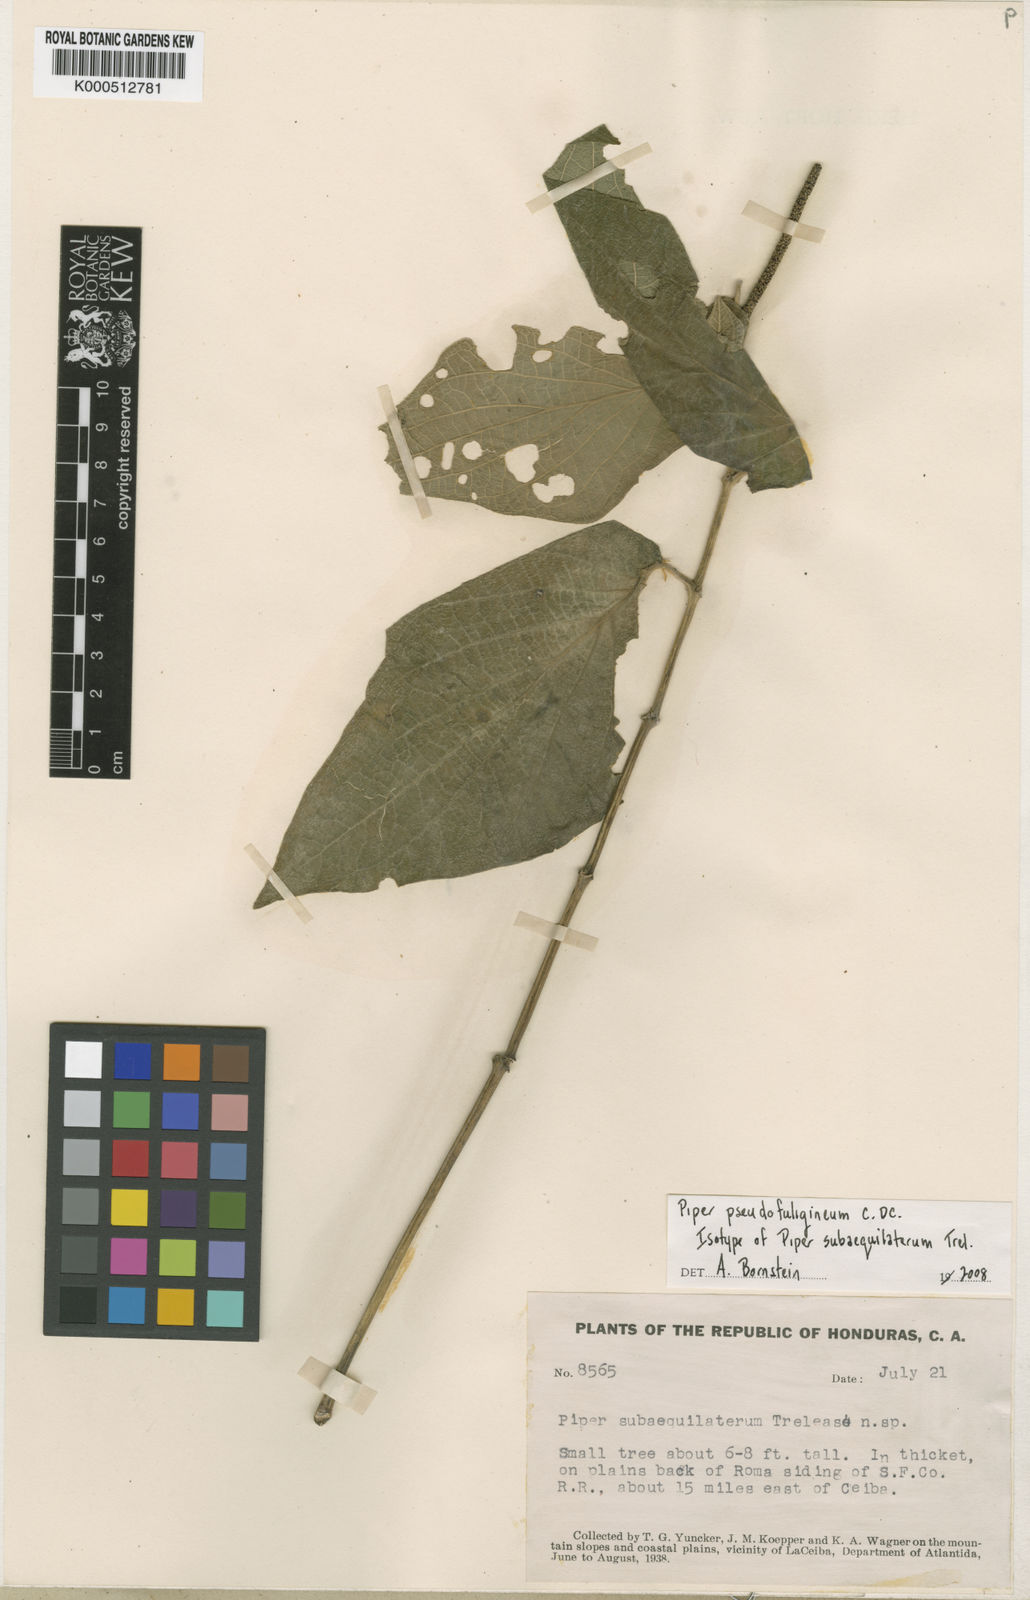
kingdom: Plantae
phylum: Tracheophyta
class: Magnoliopsida
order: Piperales
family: Piperaceae
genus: Piper
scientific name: Piper pseudofuligineum
